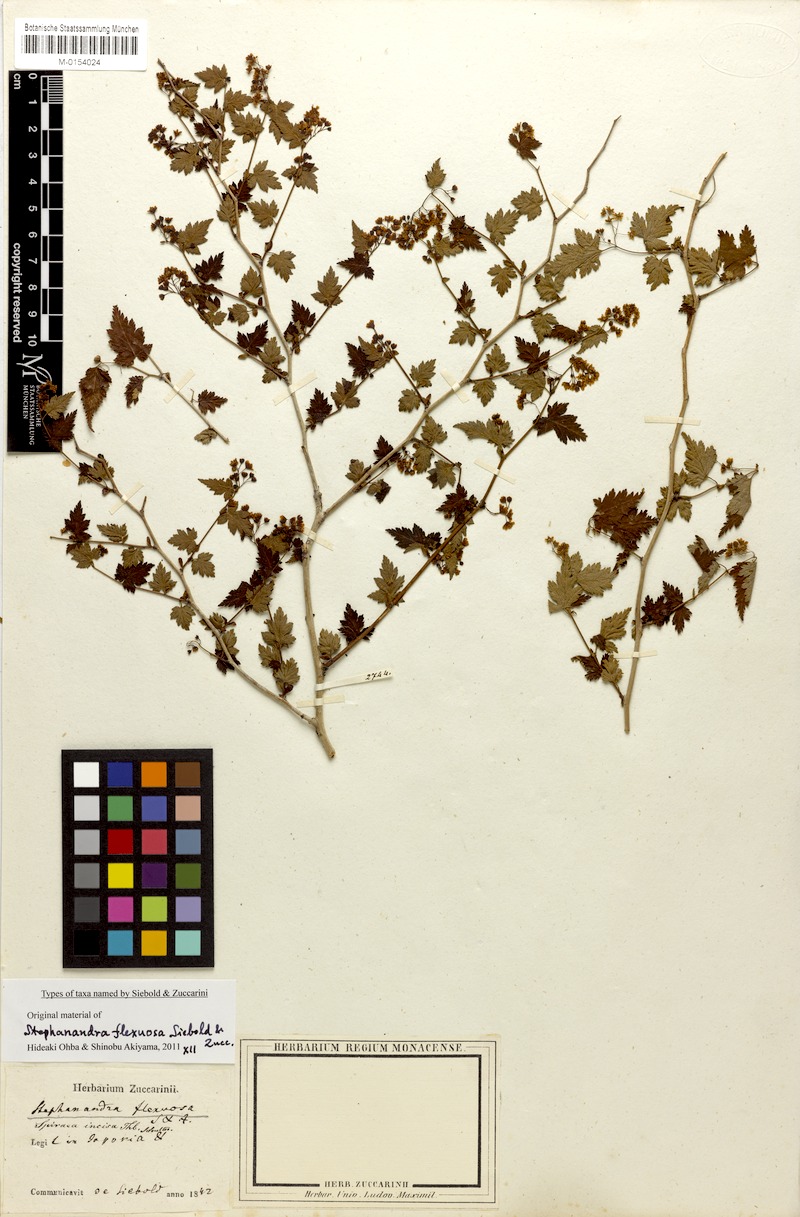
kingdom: Plantae
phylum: Tracheophyta
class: Magnoliopsida
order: Rosales
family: Rosaceae
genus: Neillia
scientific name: Neillia incisa
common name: Laceshrub
